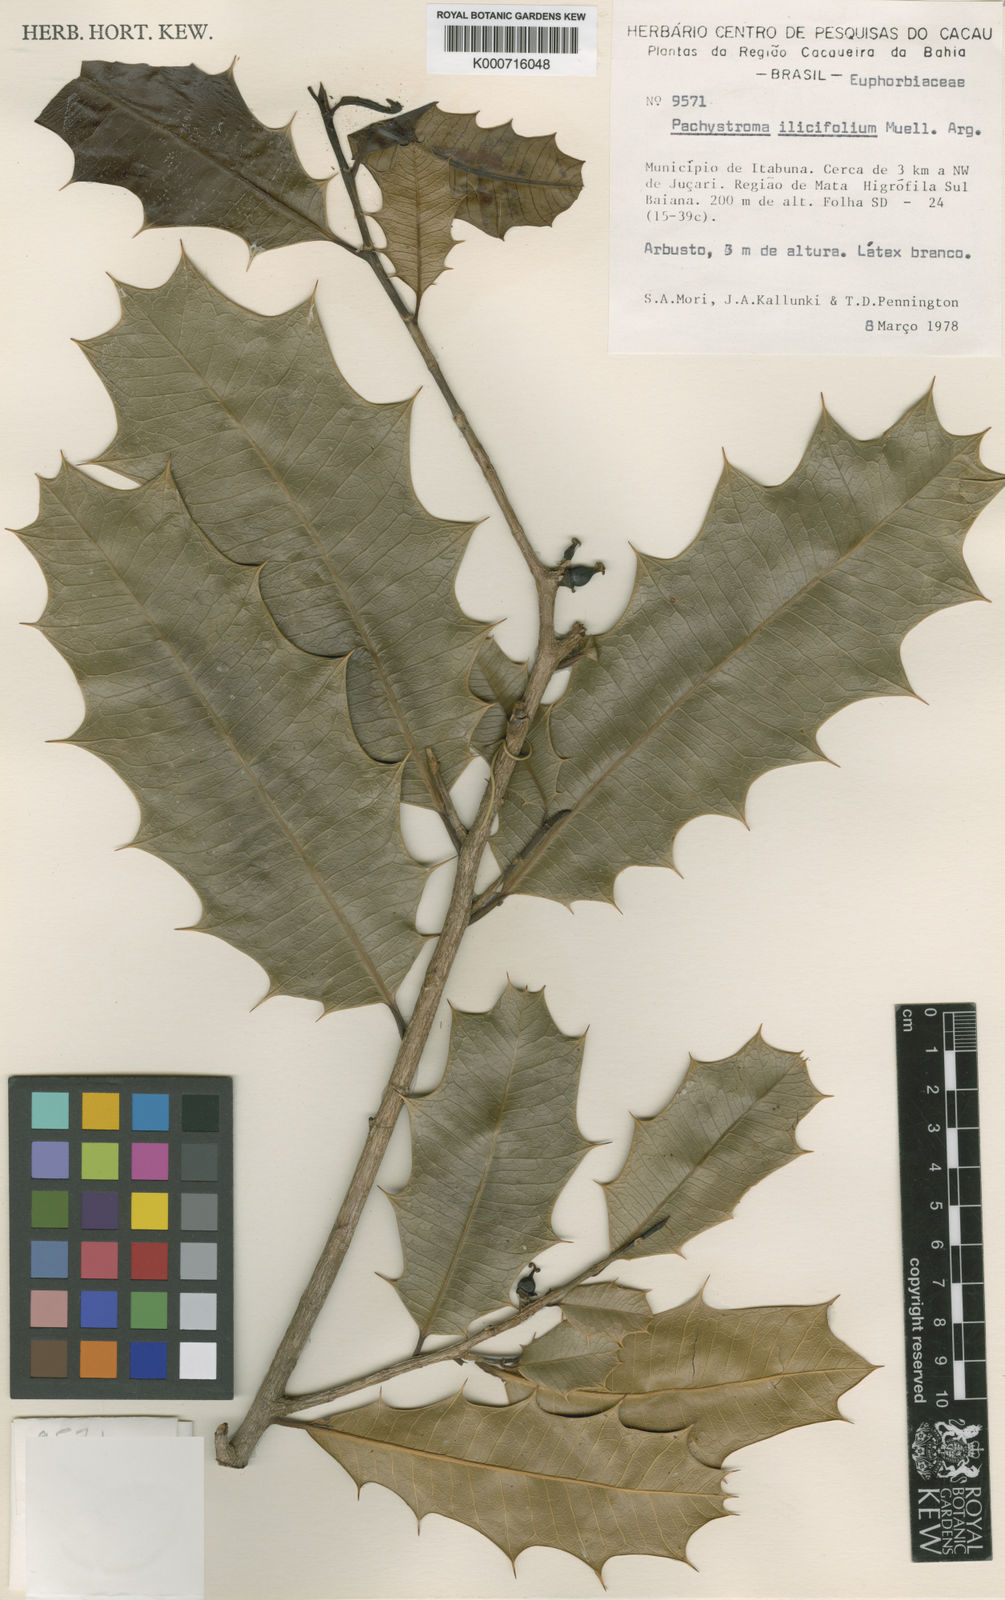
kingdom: Plantae
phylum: Tracheophyta
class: Magnoliopsida
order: Malpighiales
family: Euphorbiaceae
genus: Pachystroma
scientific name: Pachystroma longifolium
